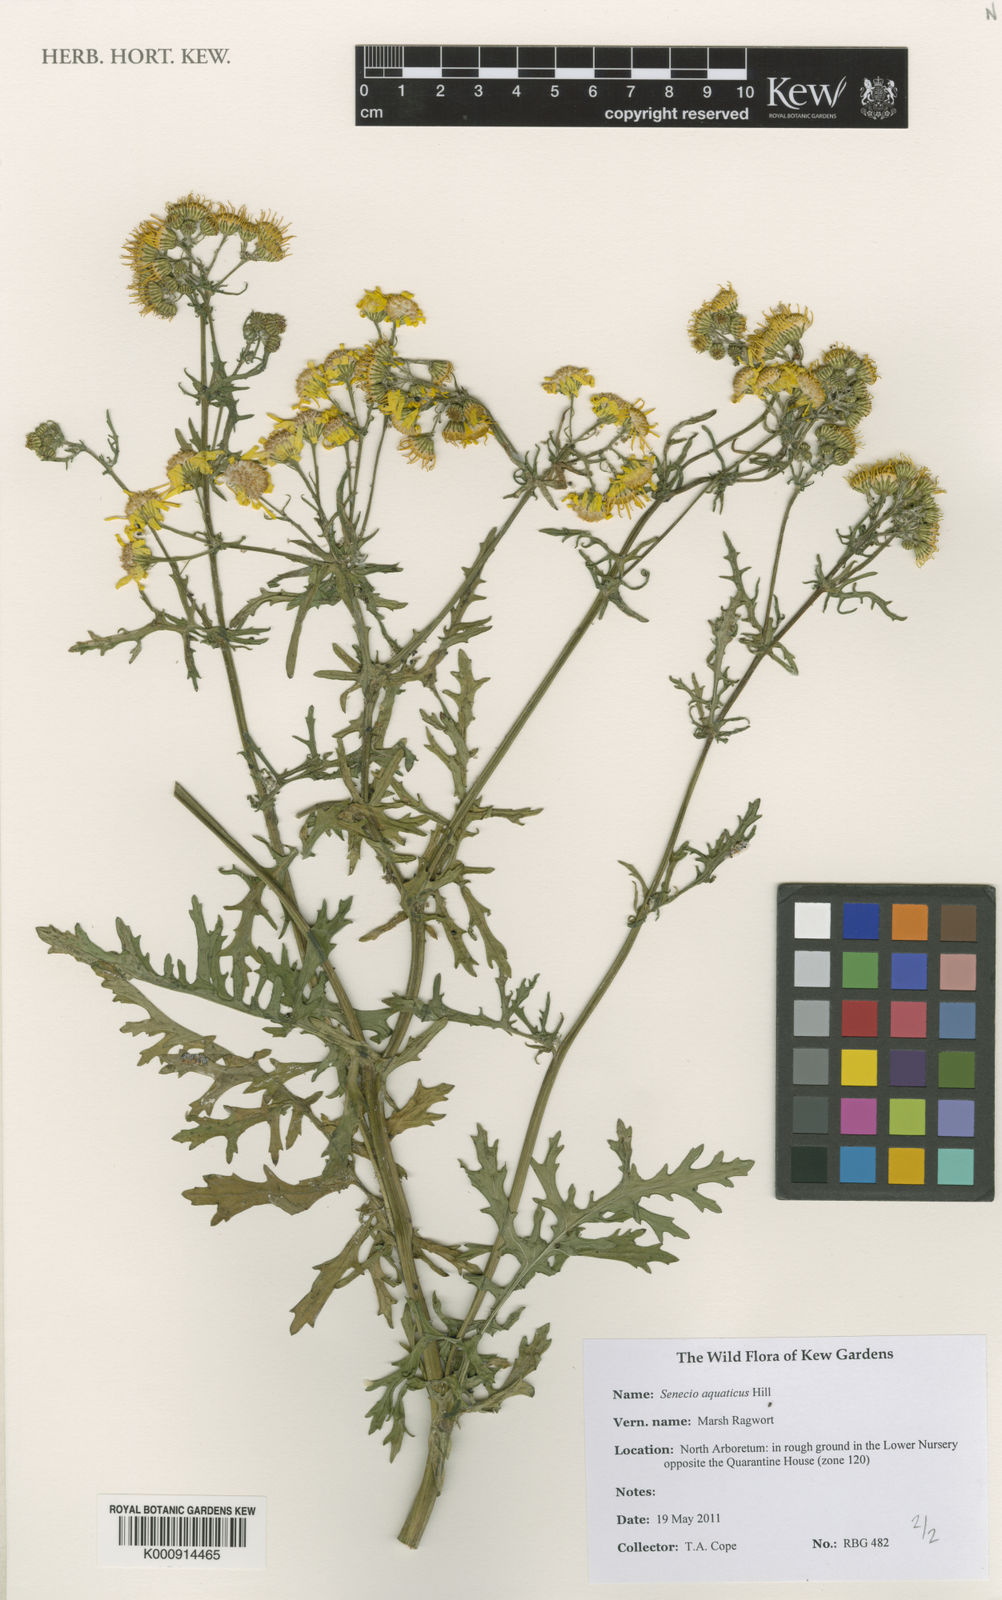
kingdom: Plantae
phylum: Tracheophyta
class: Magnoliopsida
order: Asterales
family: Asteraceae
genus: Jacobaea
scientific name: Jacobaea aquatica
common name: Water ragwort
